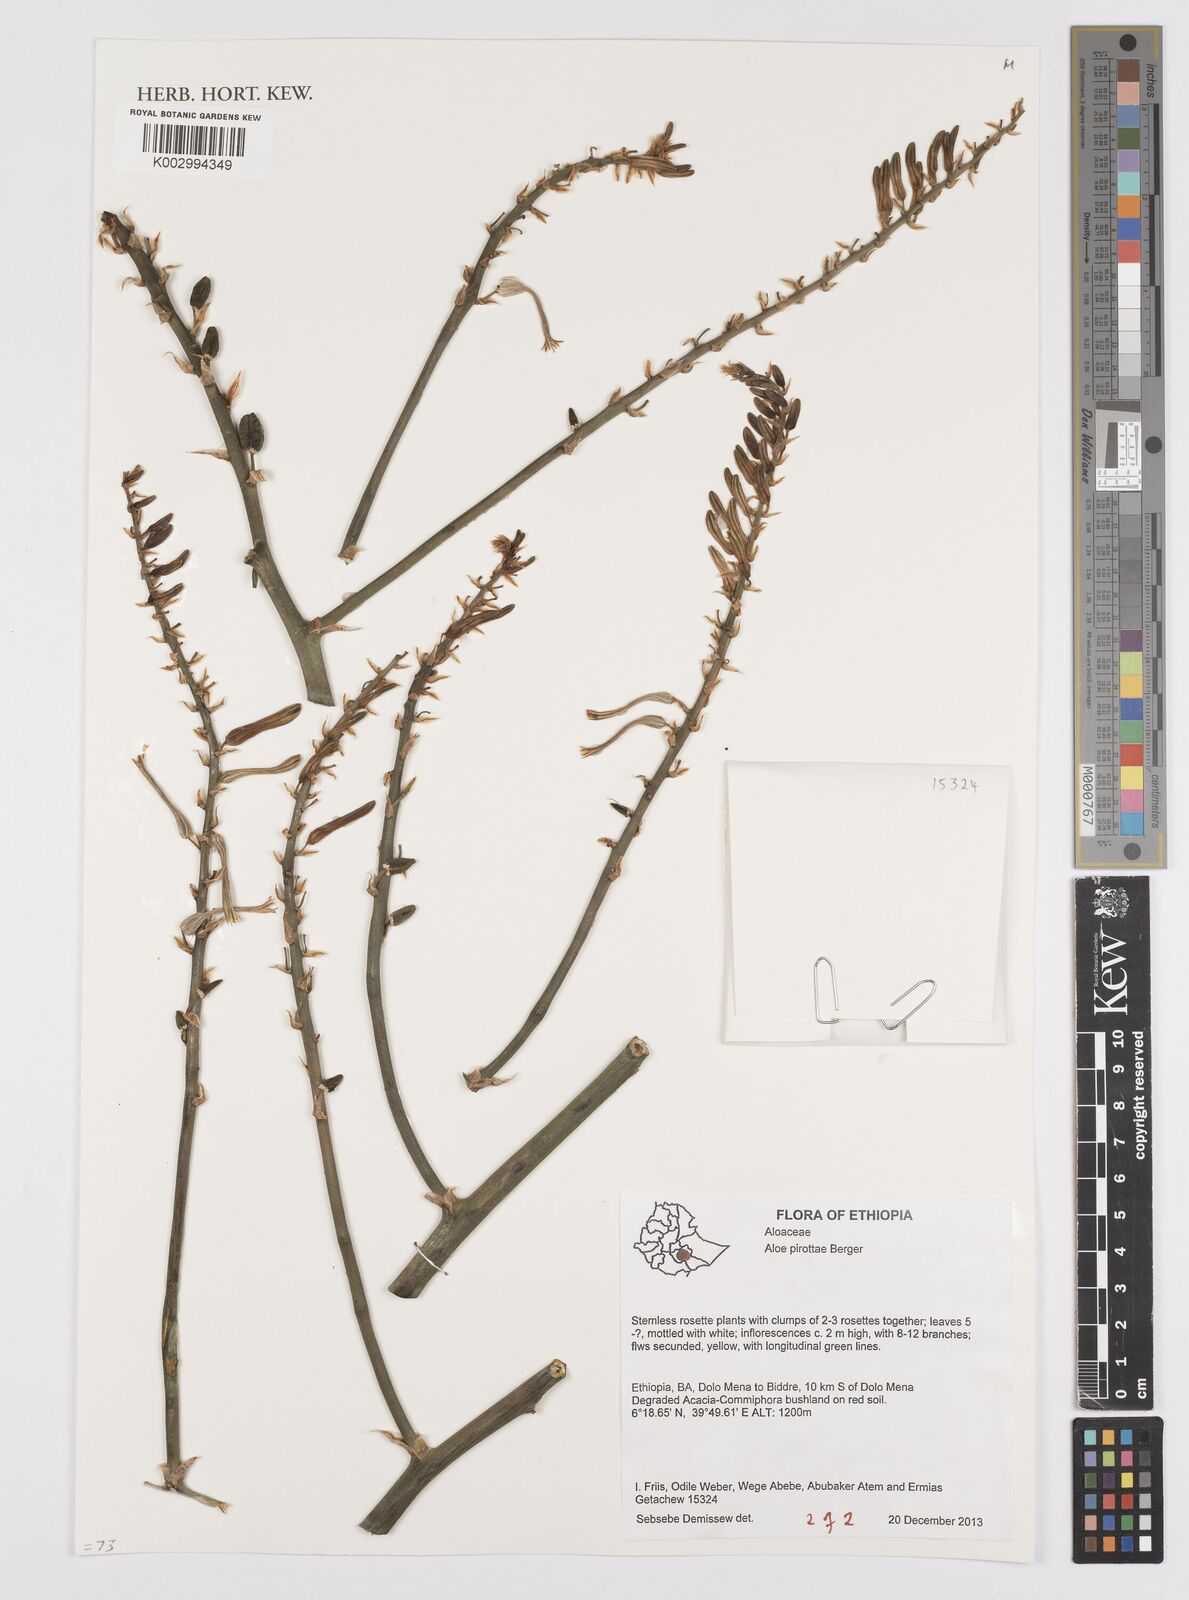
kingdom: Plantae
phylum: Tracheophyta
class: Liliopsida
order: Asparagales
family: Asphodelaceae
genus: Aloe
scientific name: Aloe pirottae
